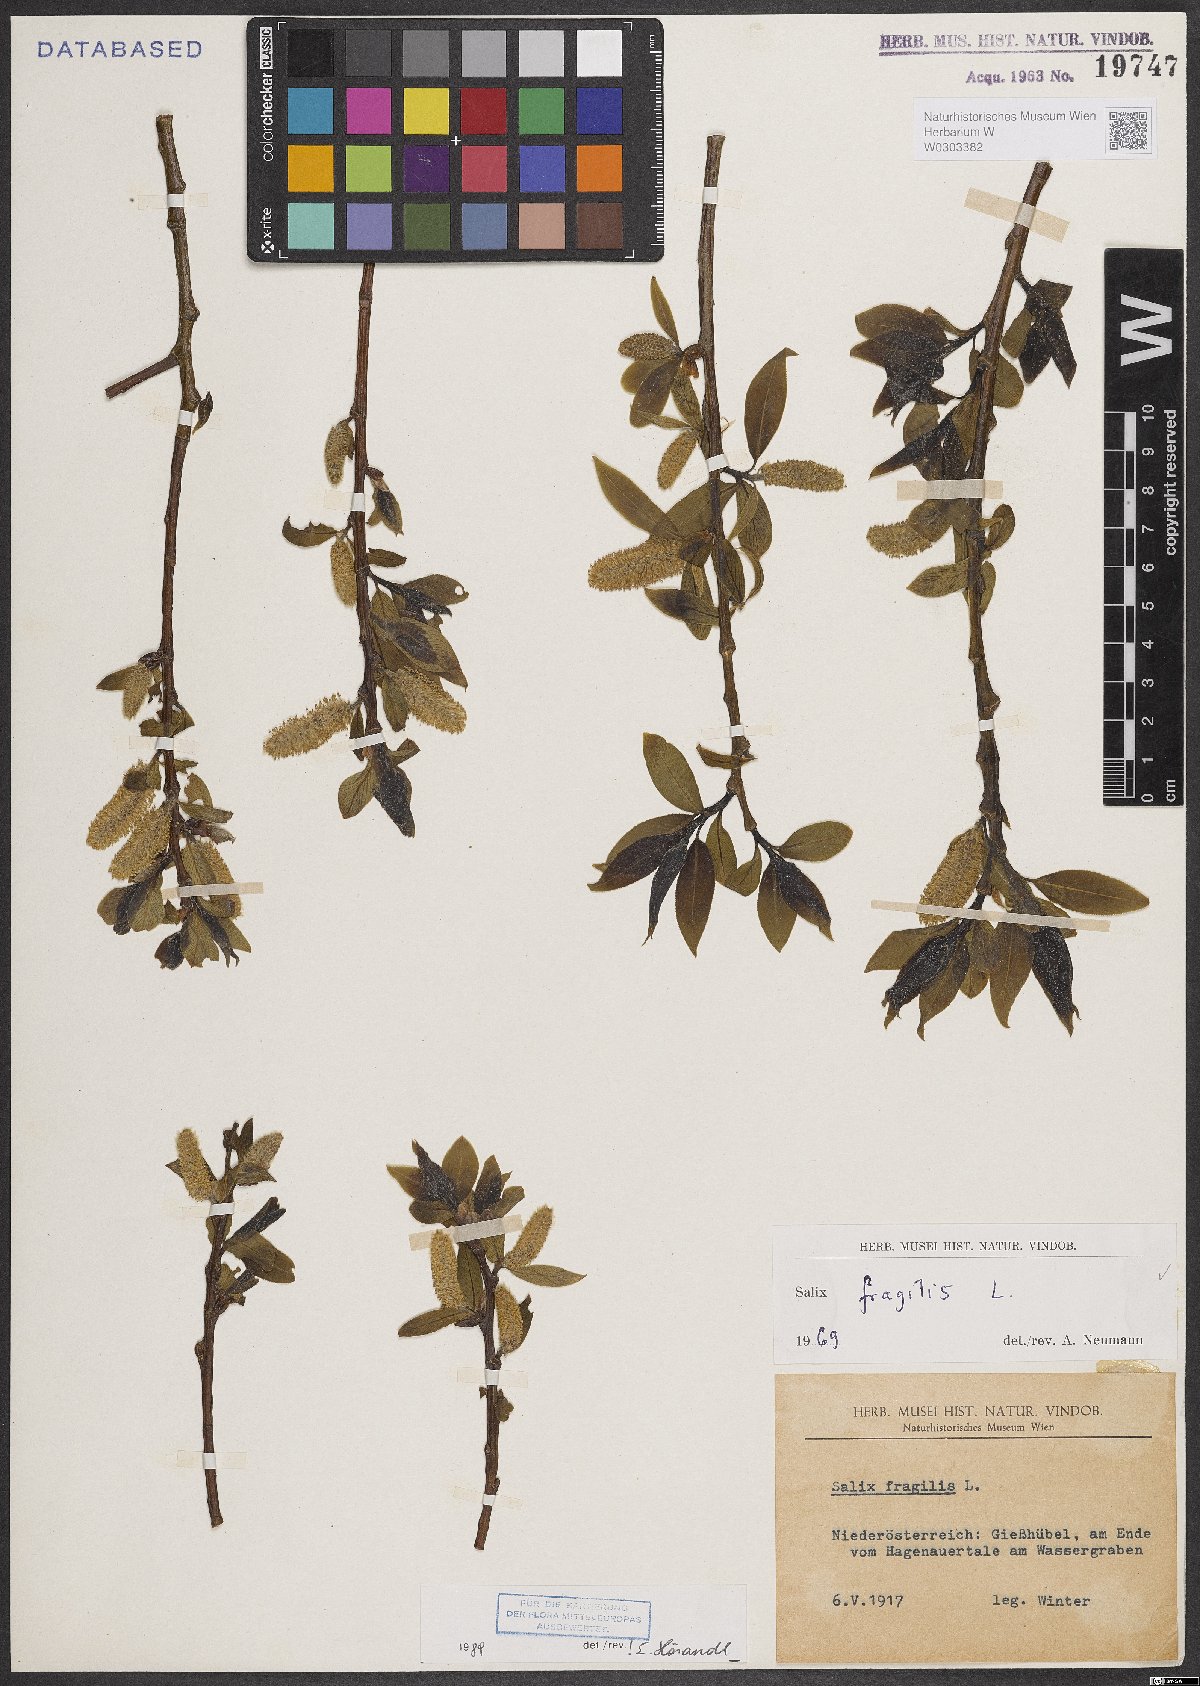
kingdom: Plantae
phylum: Tracheophyta
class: Magnoliopsida
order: Malpighiales
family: Salicaceae
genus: Salix
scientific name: Salix fragilis
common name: Crack willow
